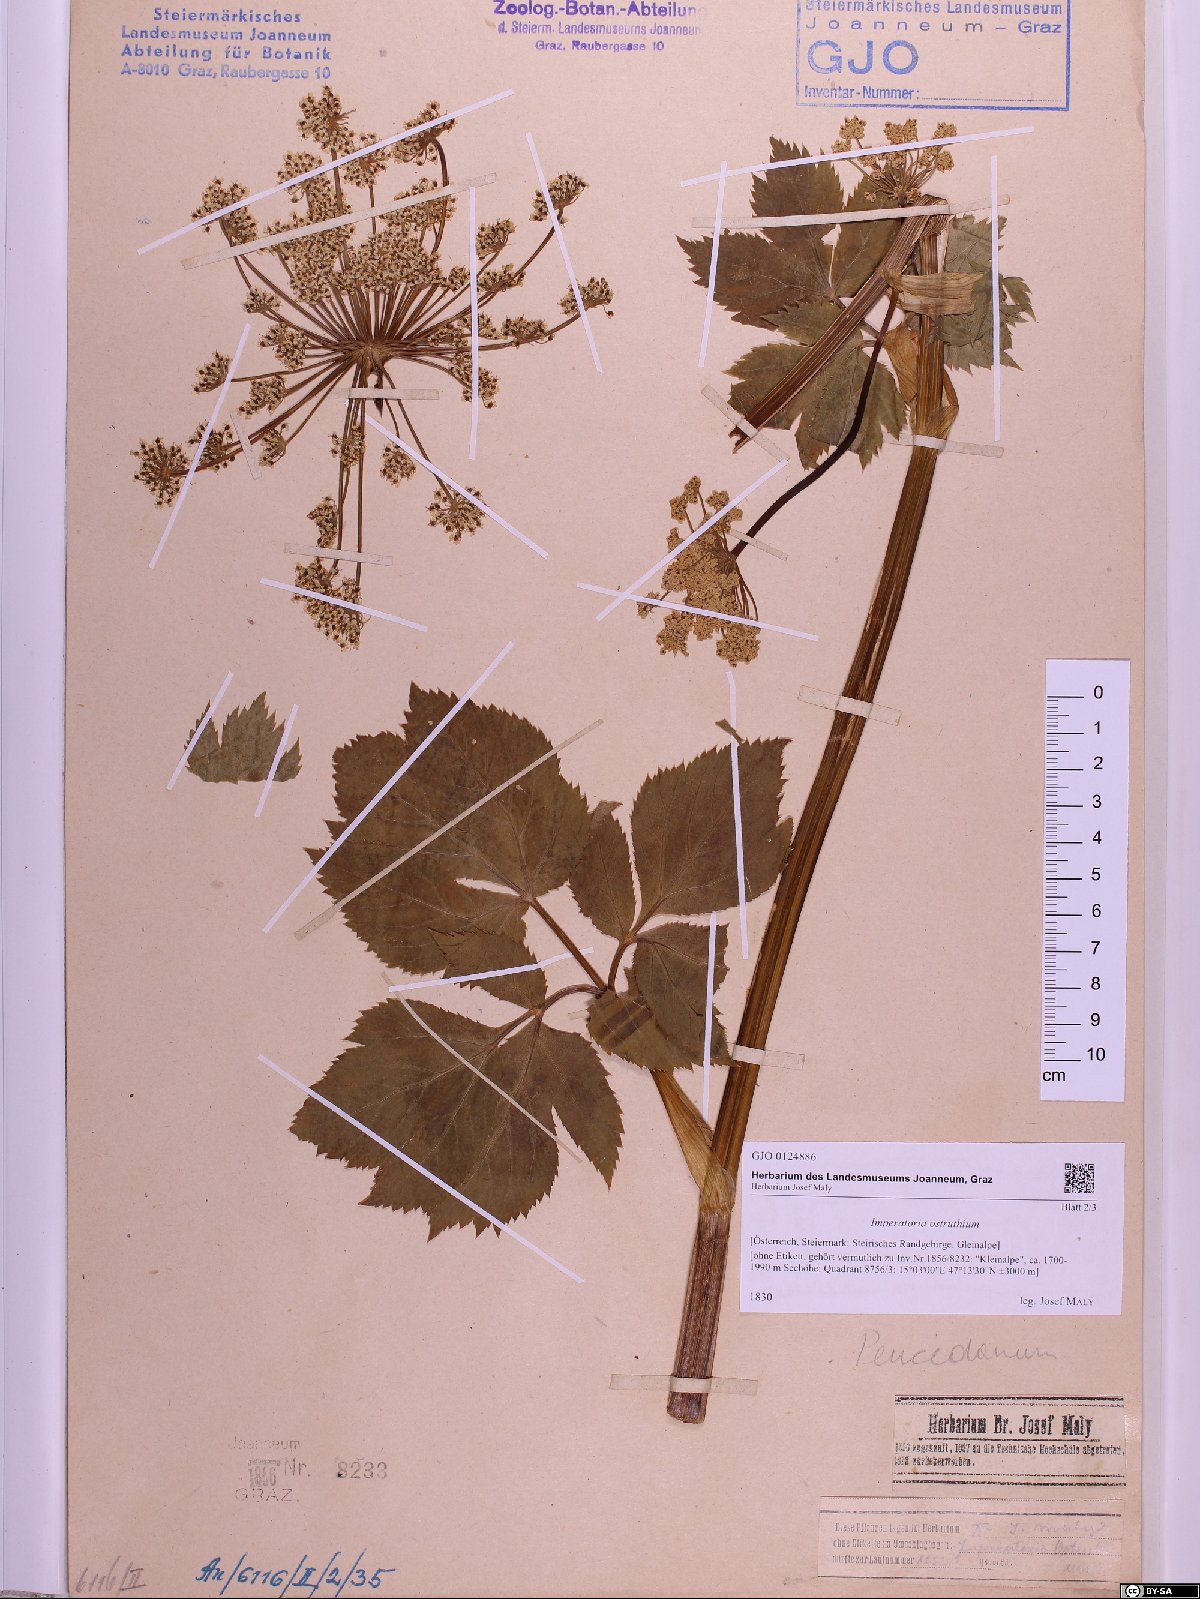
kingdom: Plantae
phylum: Tracheophyta
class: Magnoliopsida
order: Apiales
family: Apiaceae
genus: Imperatoria
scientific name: Imperatoria ostruthium
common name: Masterwort
